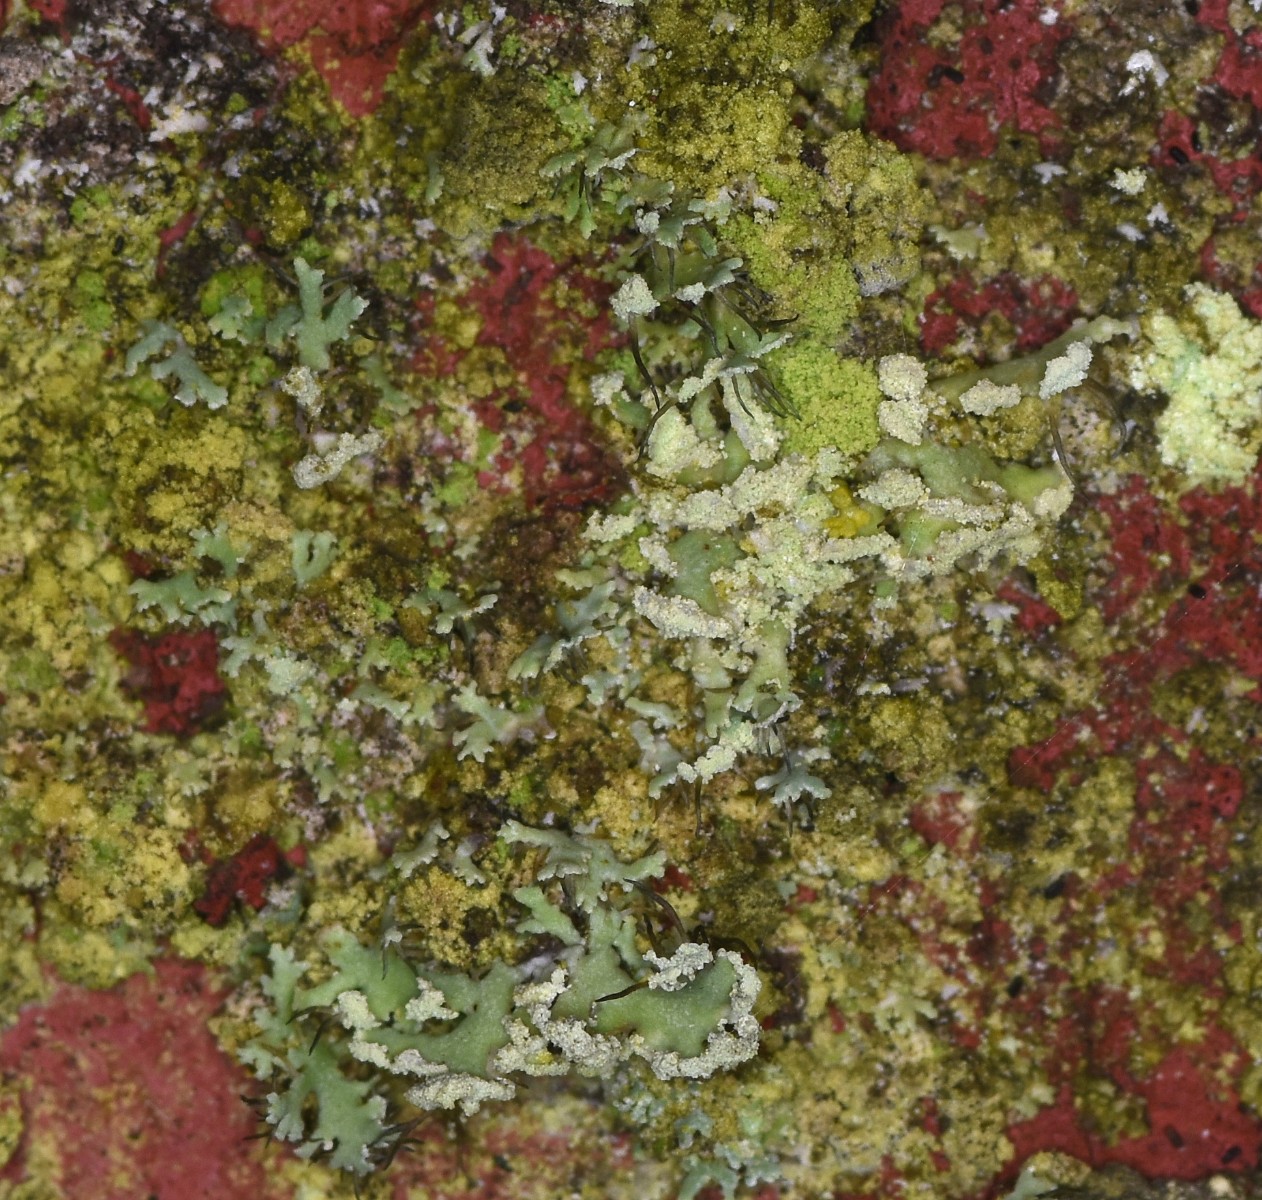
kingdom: Fungi
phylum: Ascomycota
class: Lecanoromycetes
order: Caliciales
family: Physciaceae
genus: Physcia
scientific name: Physcia tenella
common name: spæd rosetlav
